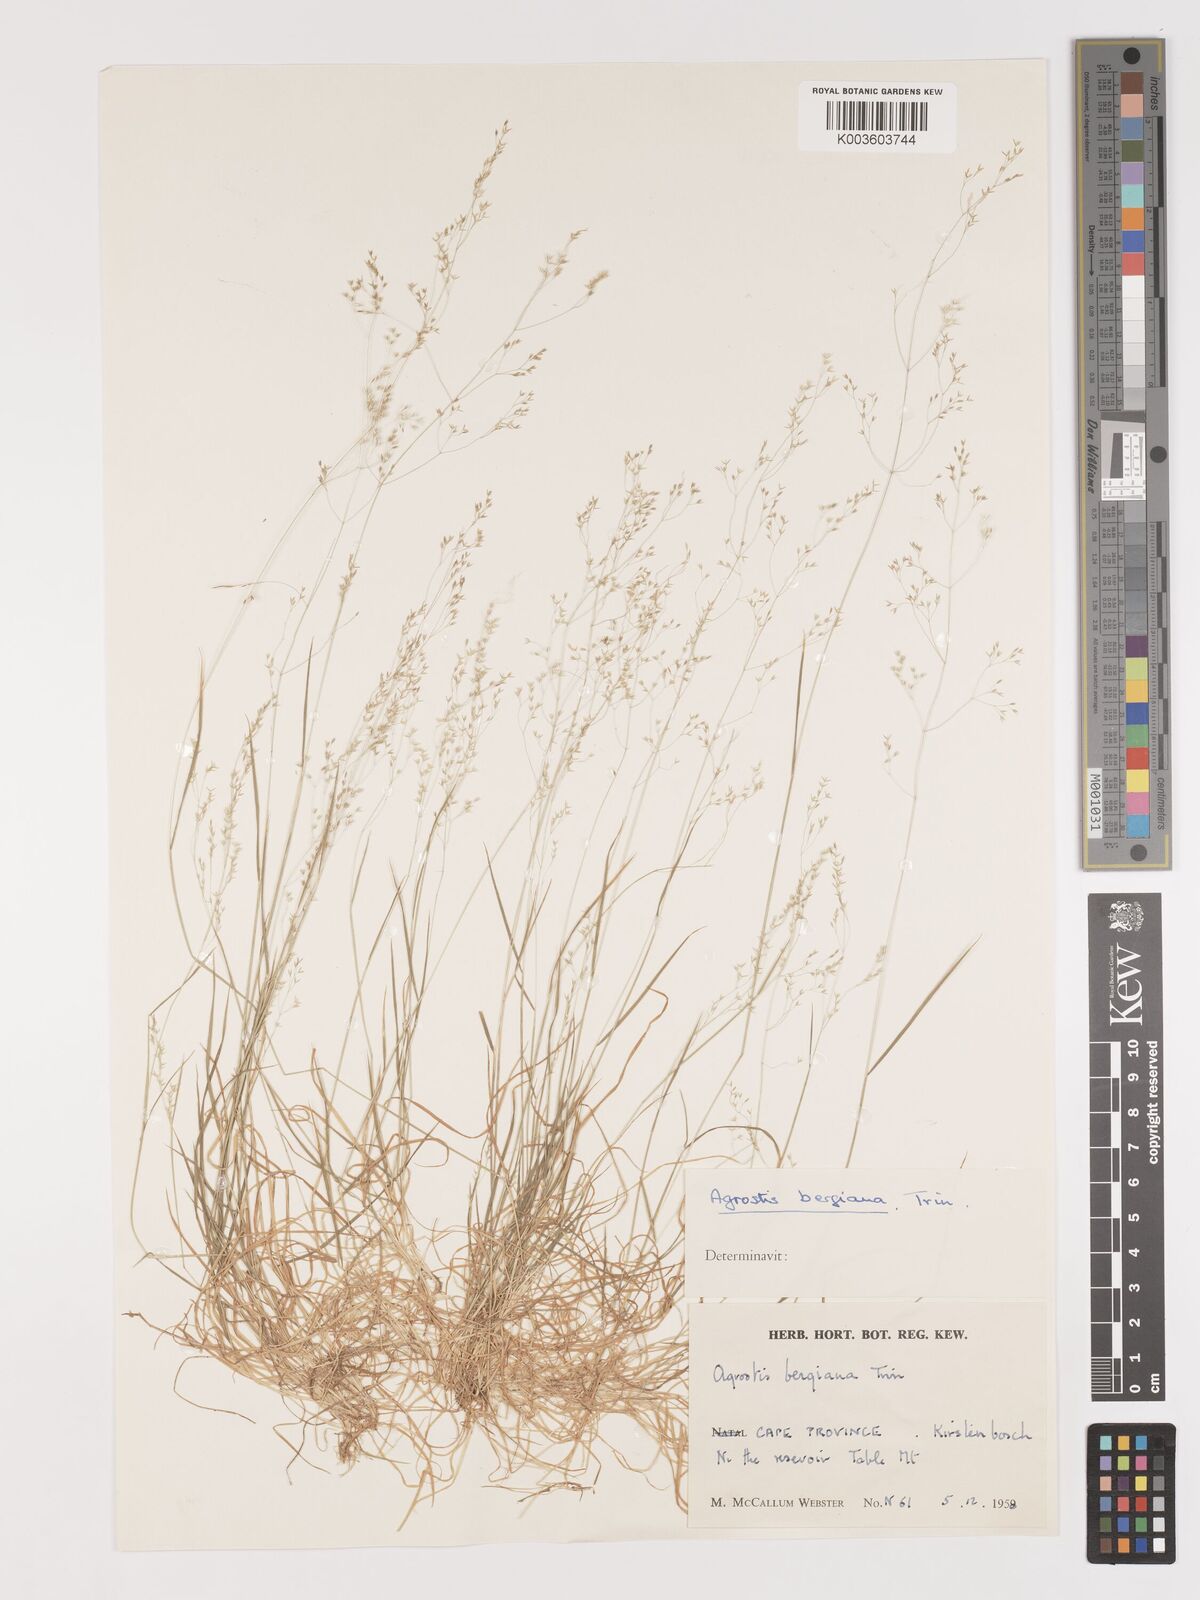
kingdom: Plantae
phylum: Tracheophyta
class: Liliopsida
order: Poales
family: Poaceae
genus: Agrostis
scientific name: Agrostis bergiana
